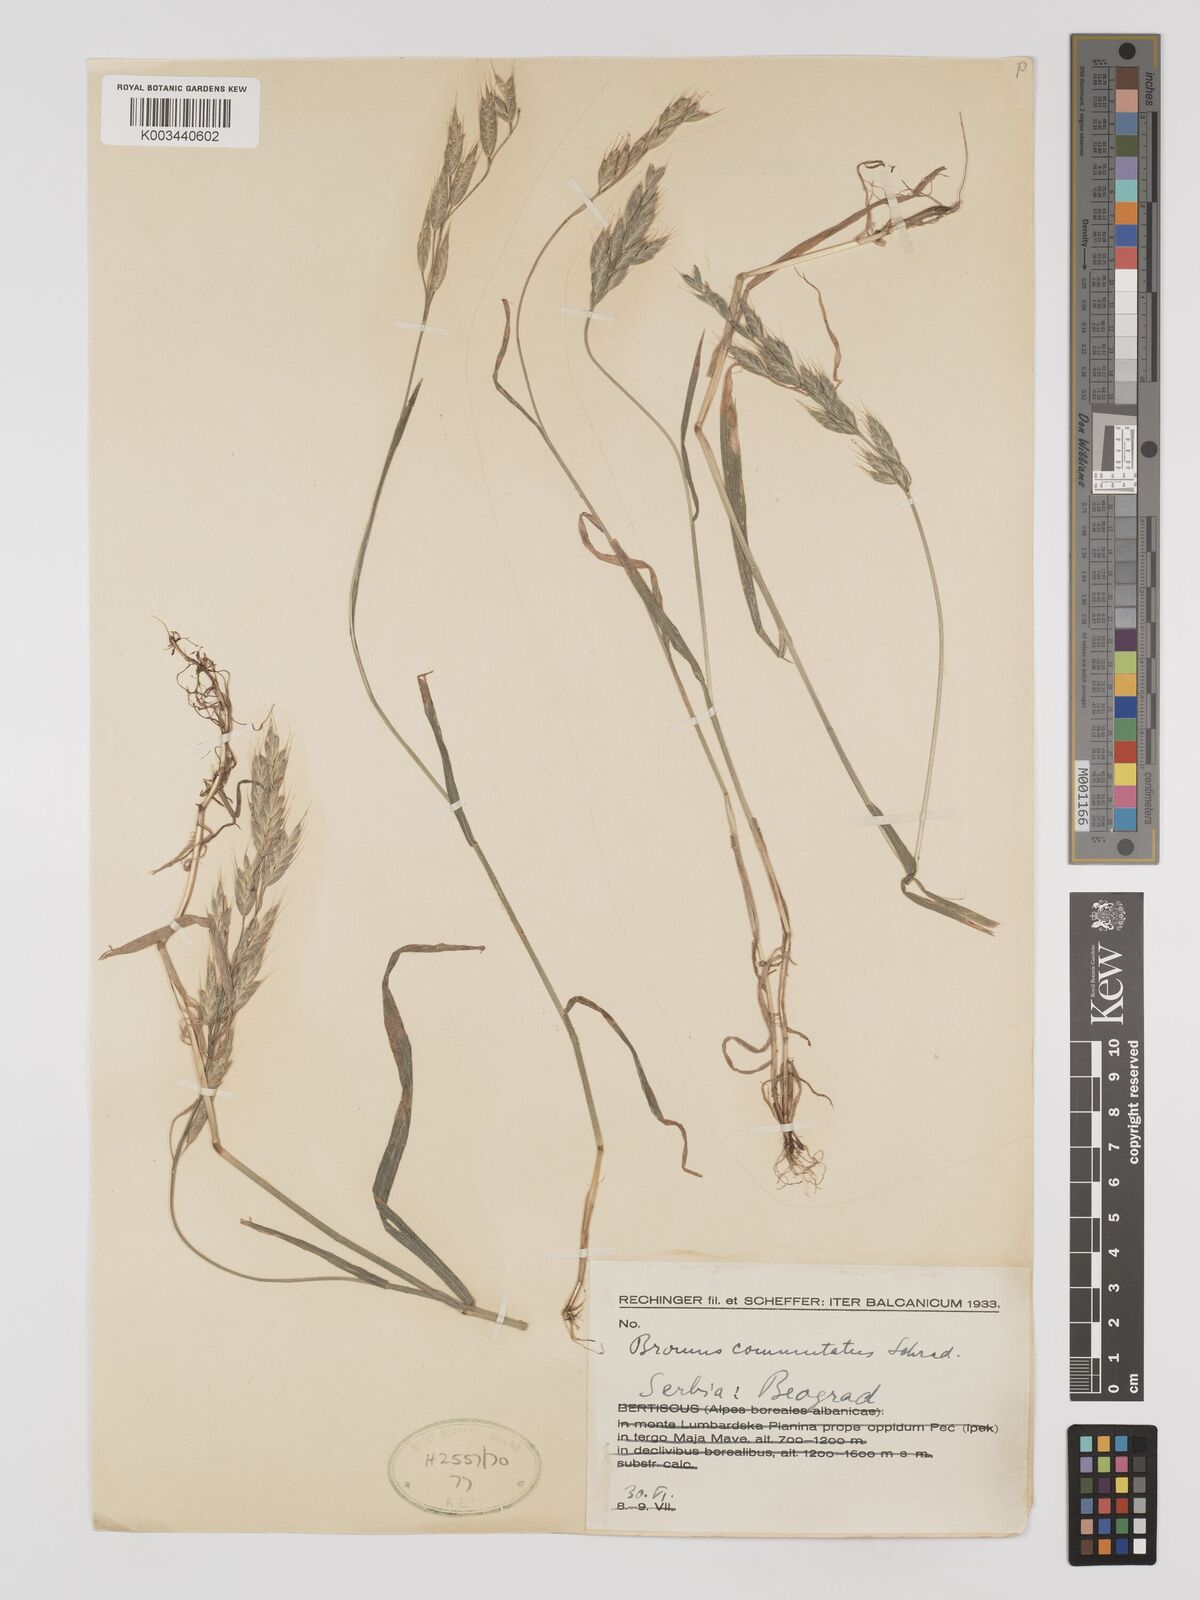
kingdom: Plantae
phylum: Tracheophyta
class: Liliopsida
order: Poales
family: Poaceae
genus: Bromus
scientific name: Bromus racemosus
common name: Bald brome
